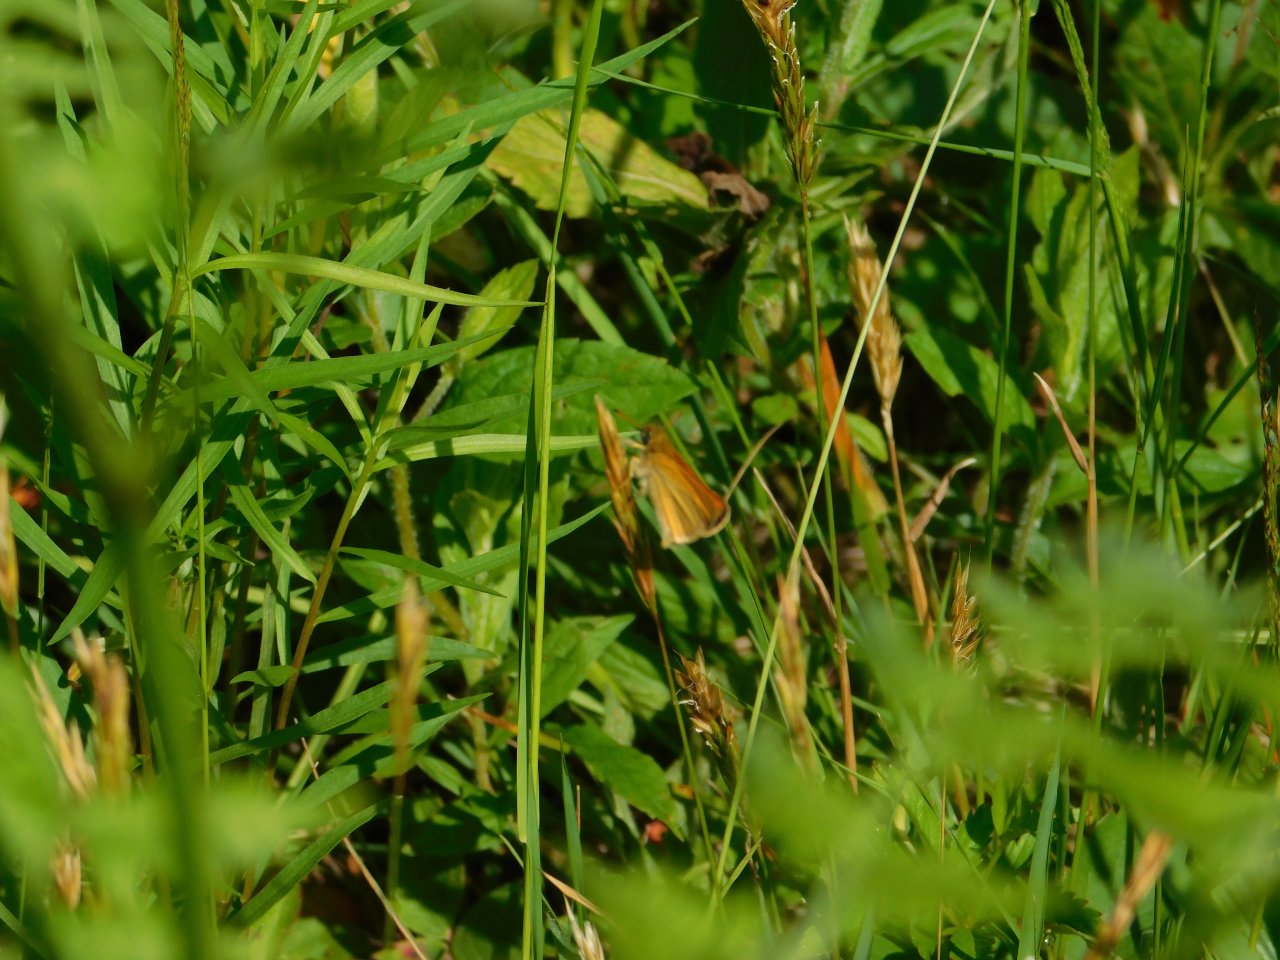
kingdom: Animalia
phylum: Arthropoda
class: Insecta
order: Lepidoptera
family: Hesperiidae
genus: Thymelicus
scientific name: Thymelicus lineola
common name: European Skipper
